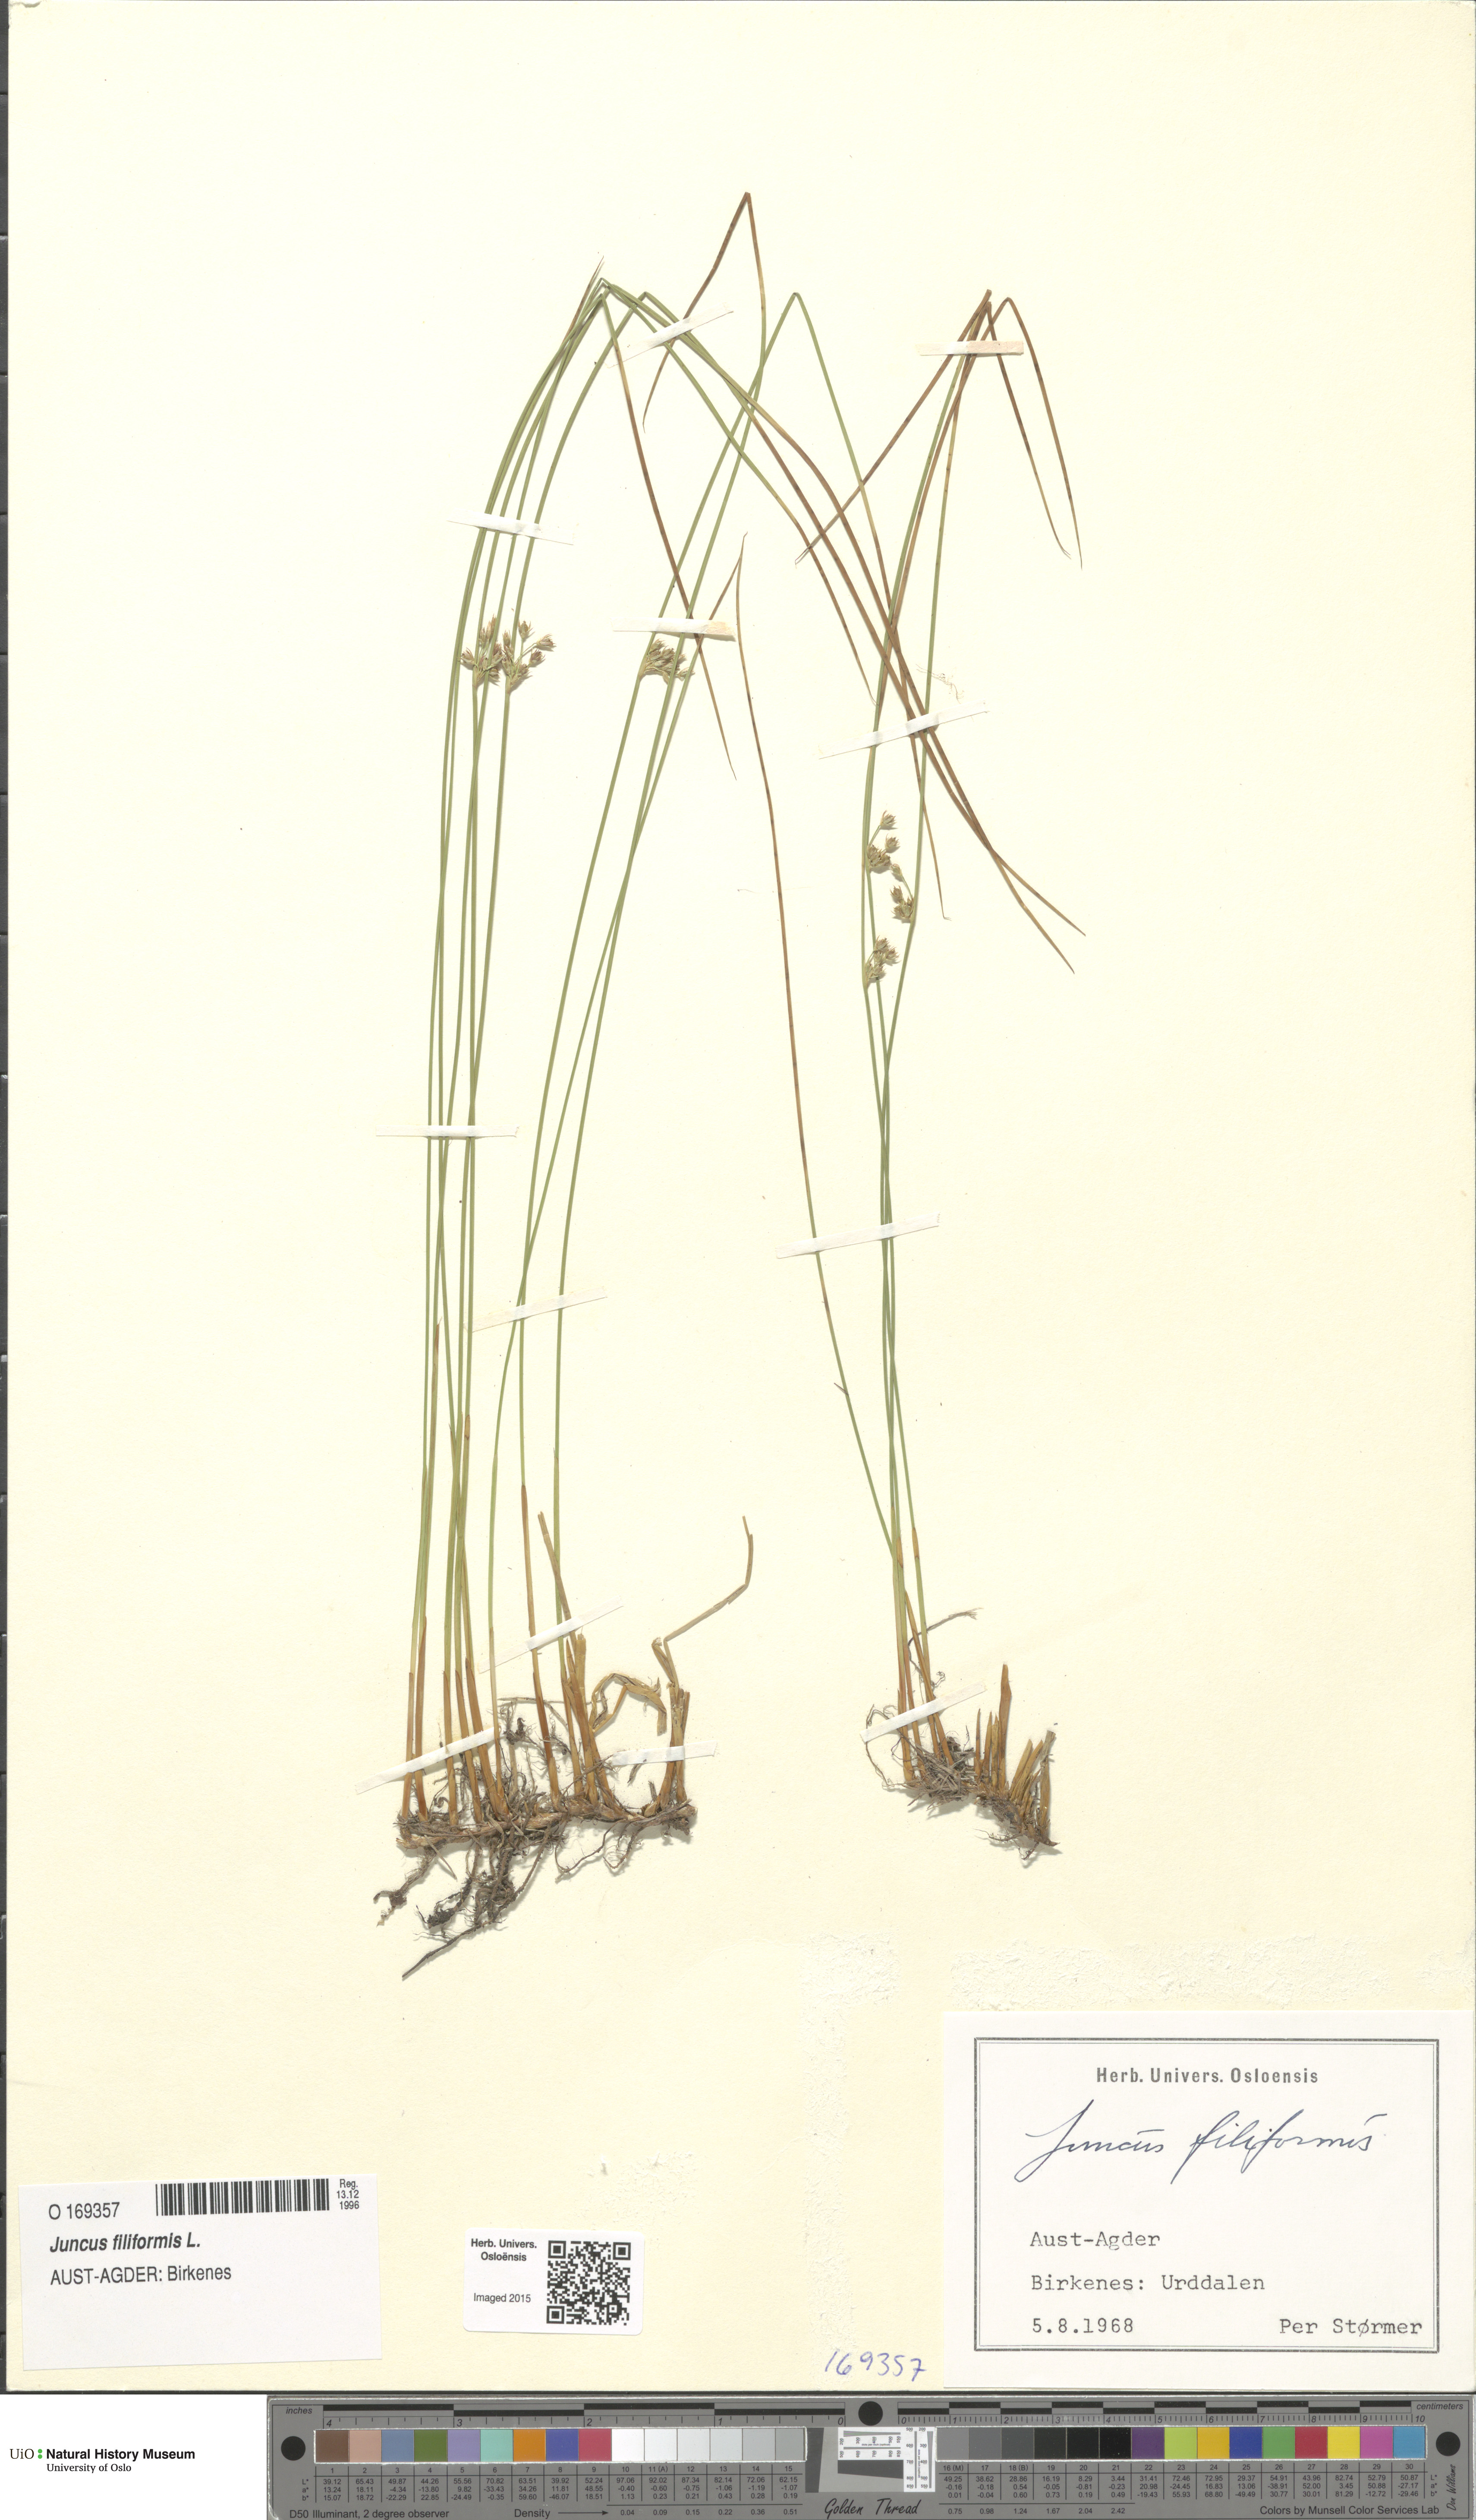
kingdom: Plantae
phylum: Tracheophyta
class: Liliopsida
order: Poales
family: Juncaceae
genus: Juncus
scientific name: Juncus filiformis
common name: Thread rush
